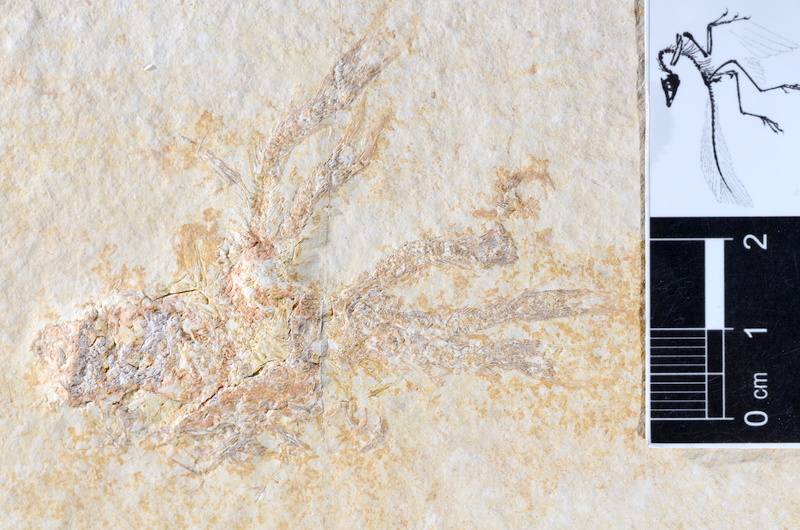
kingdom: Animalia
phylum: Chordata
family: Ascalaboidae
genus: Tharsis
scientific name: Tharsis dubius
